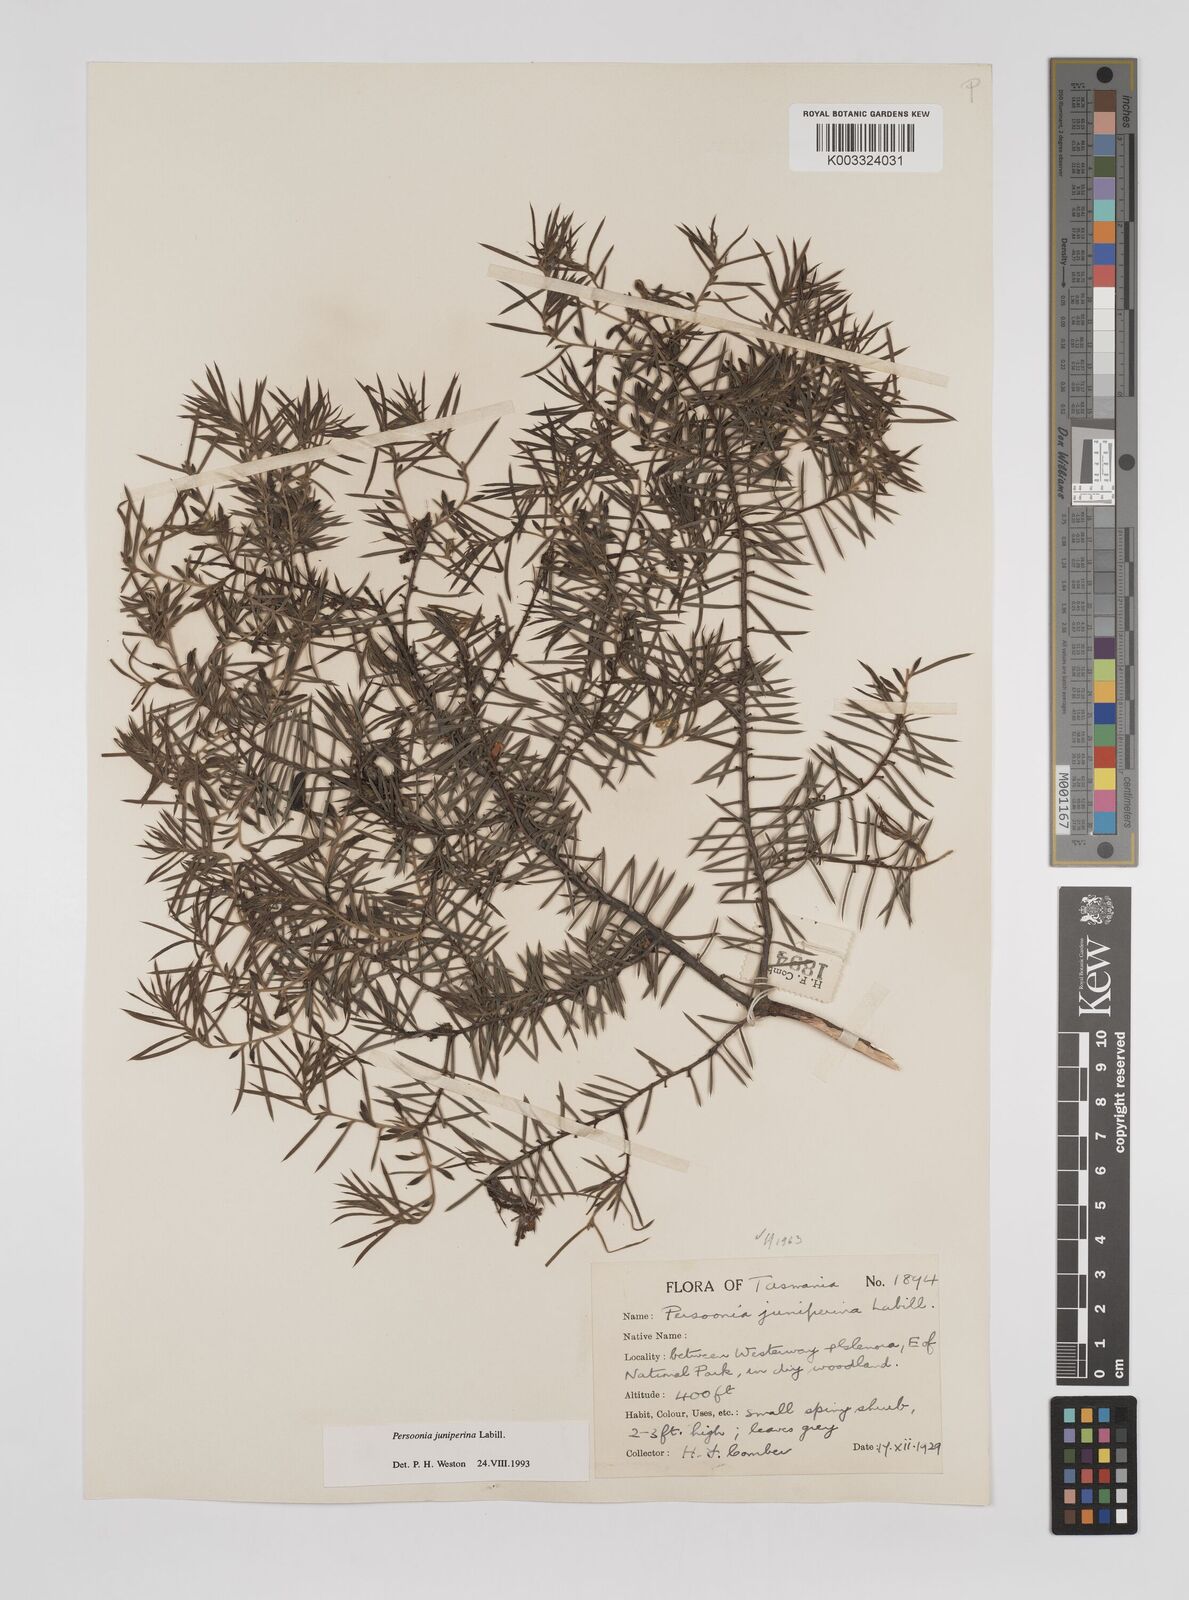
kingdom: Plantae
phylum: Tracheophyta
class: Magnoliopsida
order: Proteales
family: Proteaceae
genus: Persoonia
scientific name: Persoonia juniperina
